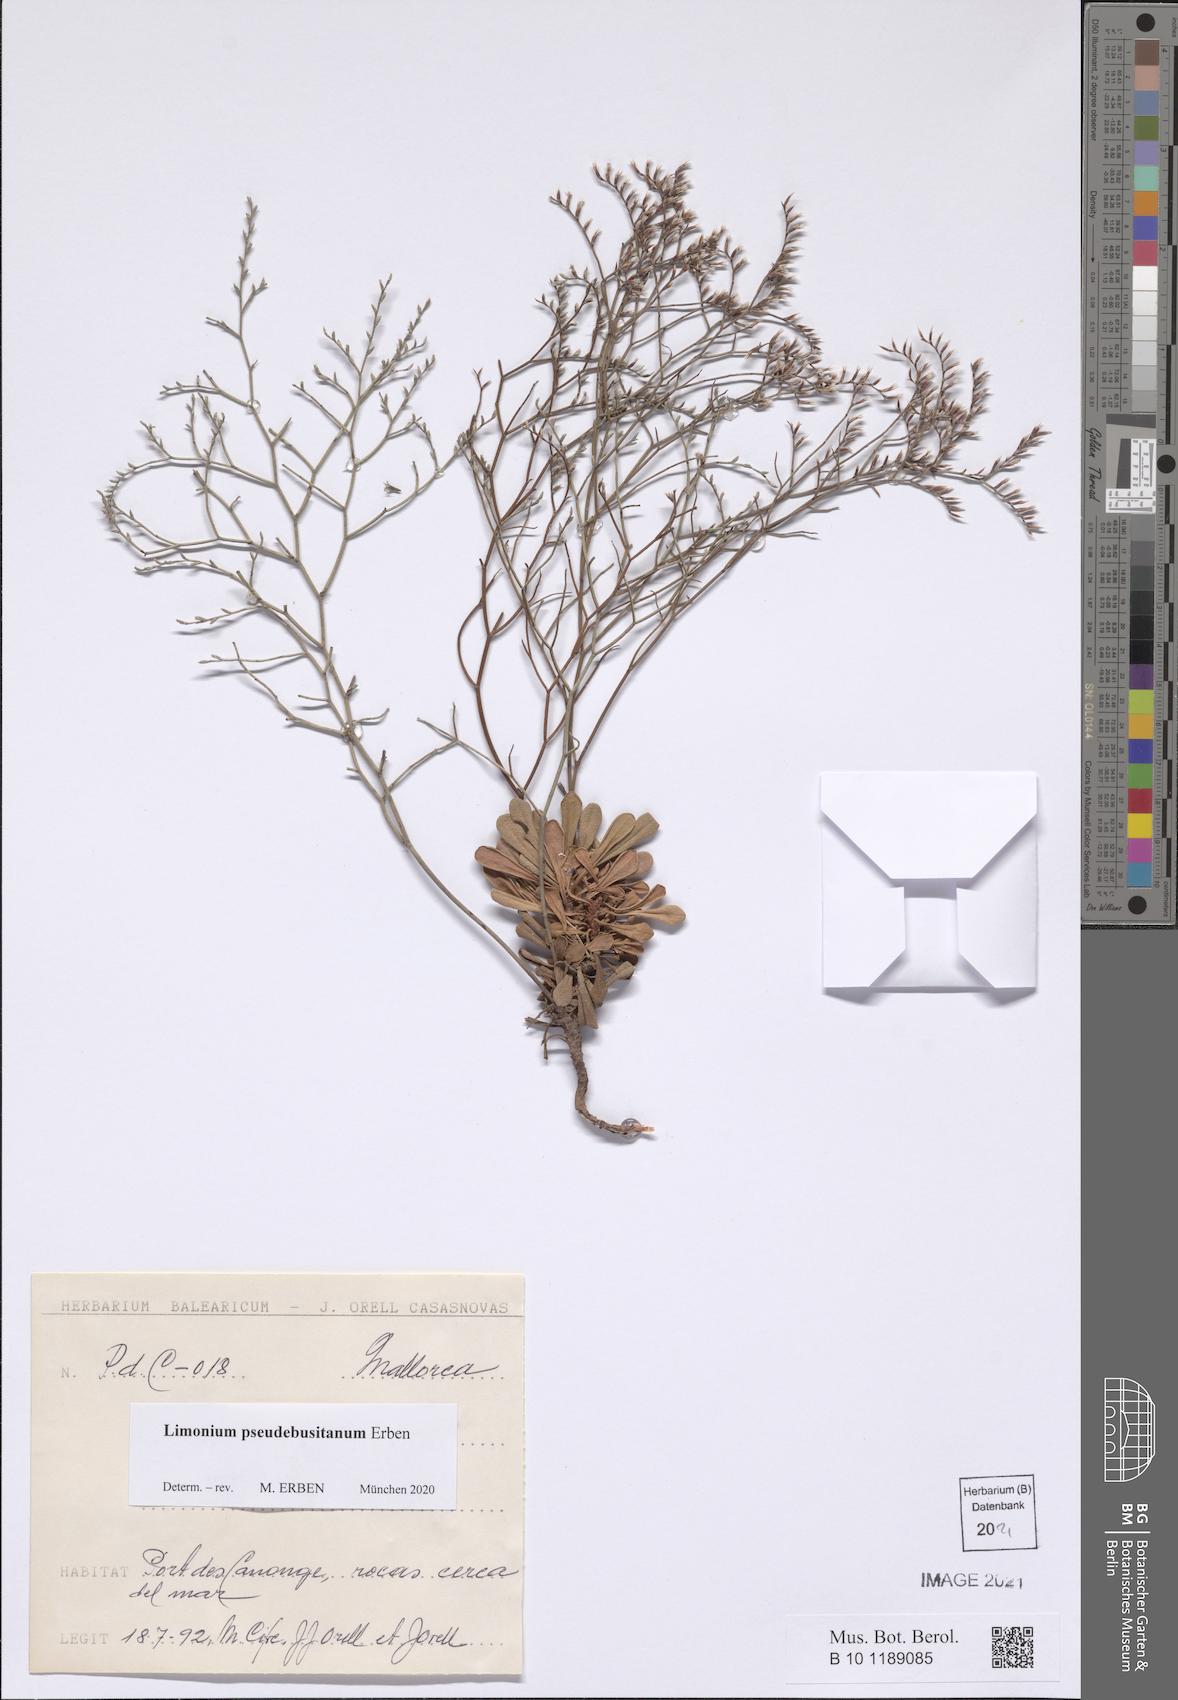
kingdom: Plantae
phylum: Tracheophyta
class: Magnoliopsida
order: Caryophyllales
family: Plumbaginaceae
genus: Limonium
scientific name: Limonium pseudebusitanum
